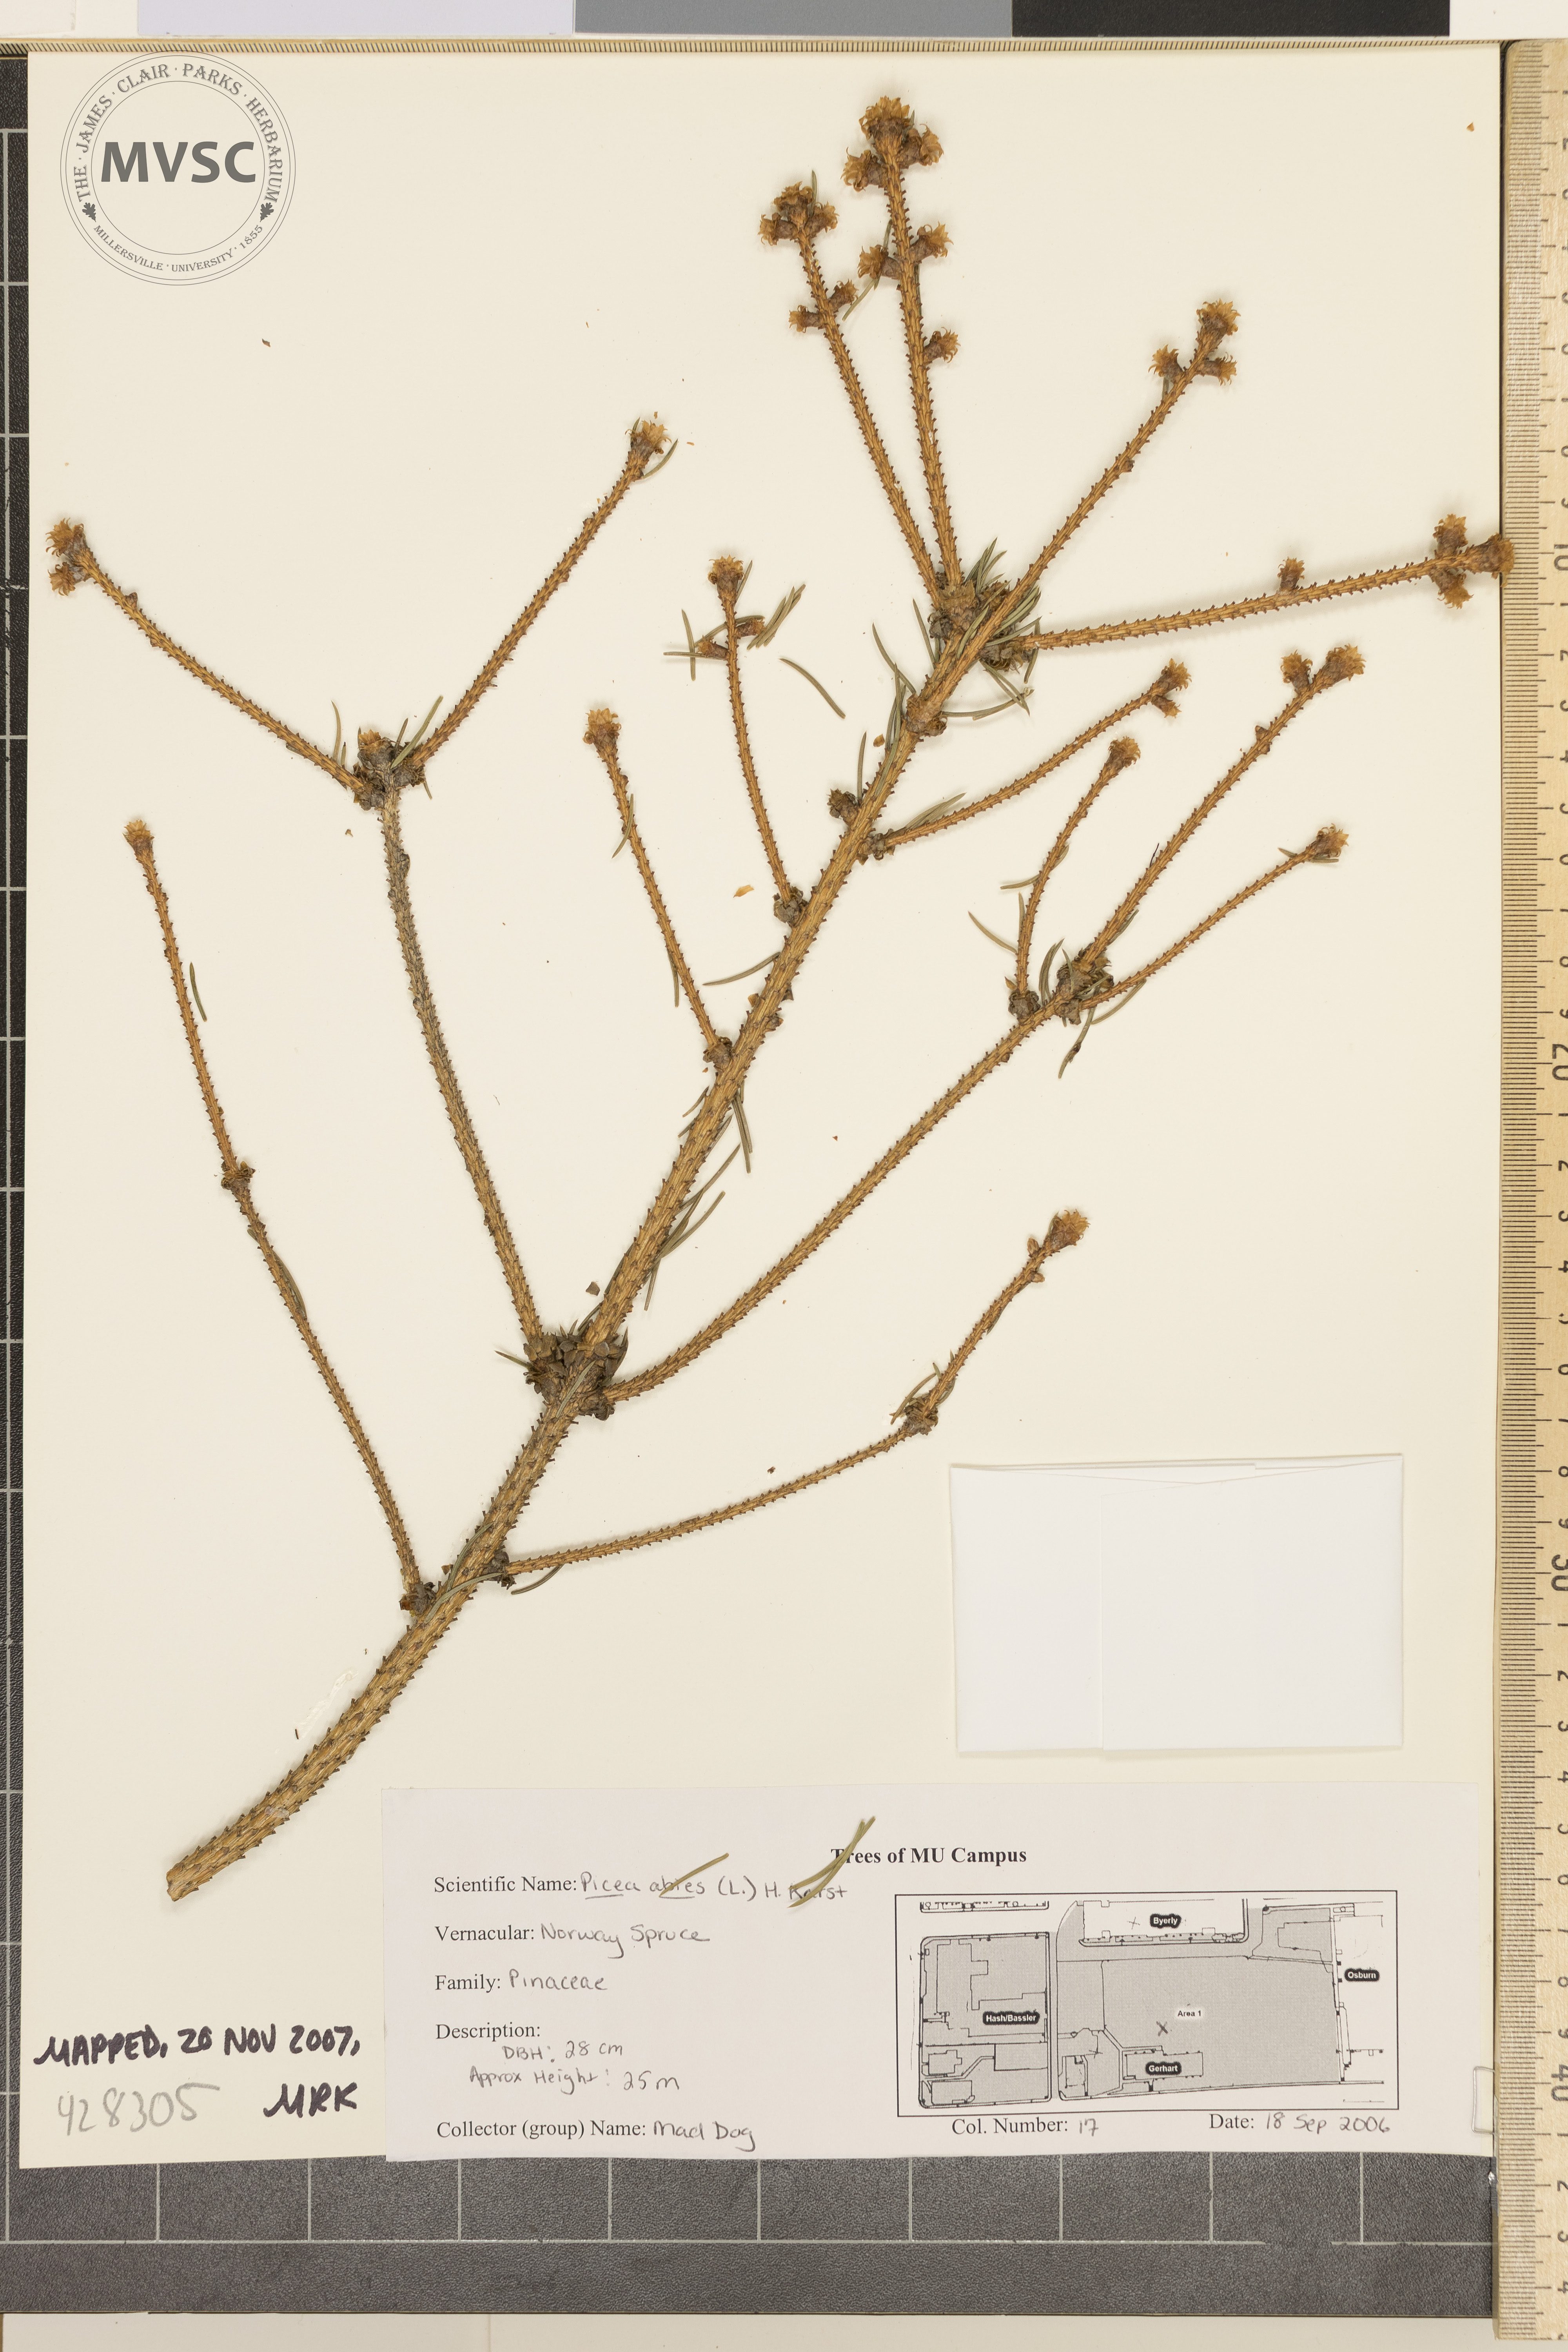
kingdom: Plantae
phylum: Tracheophyta
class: Pinopsida
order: Pinales
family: Pinaceae
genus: Picea
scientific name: Picea abies
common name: Norway Spruce
